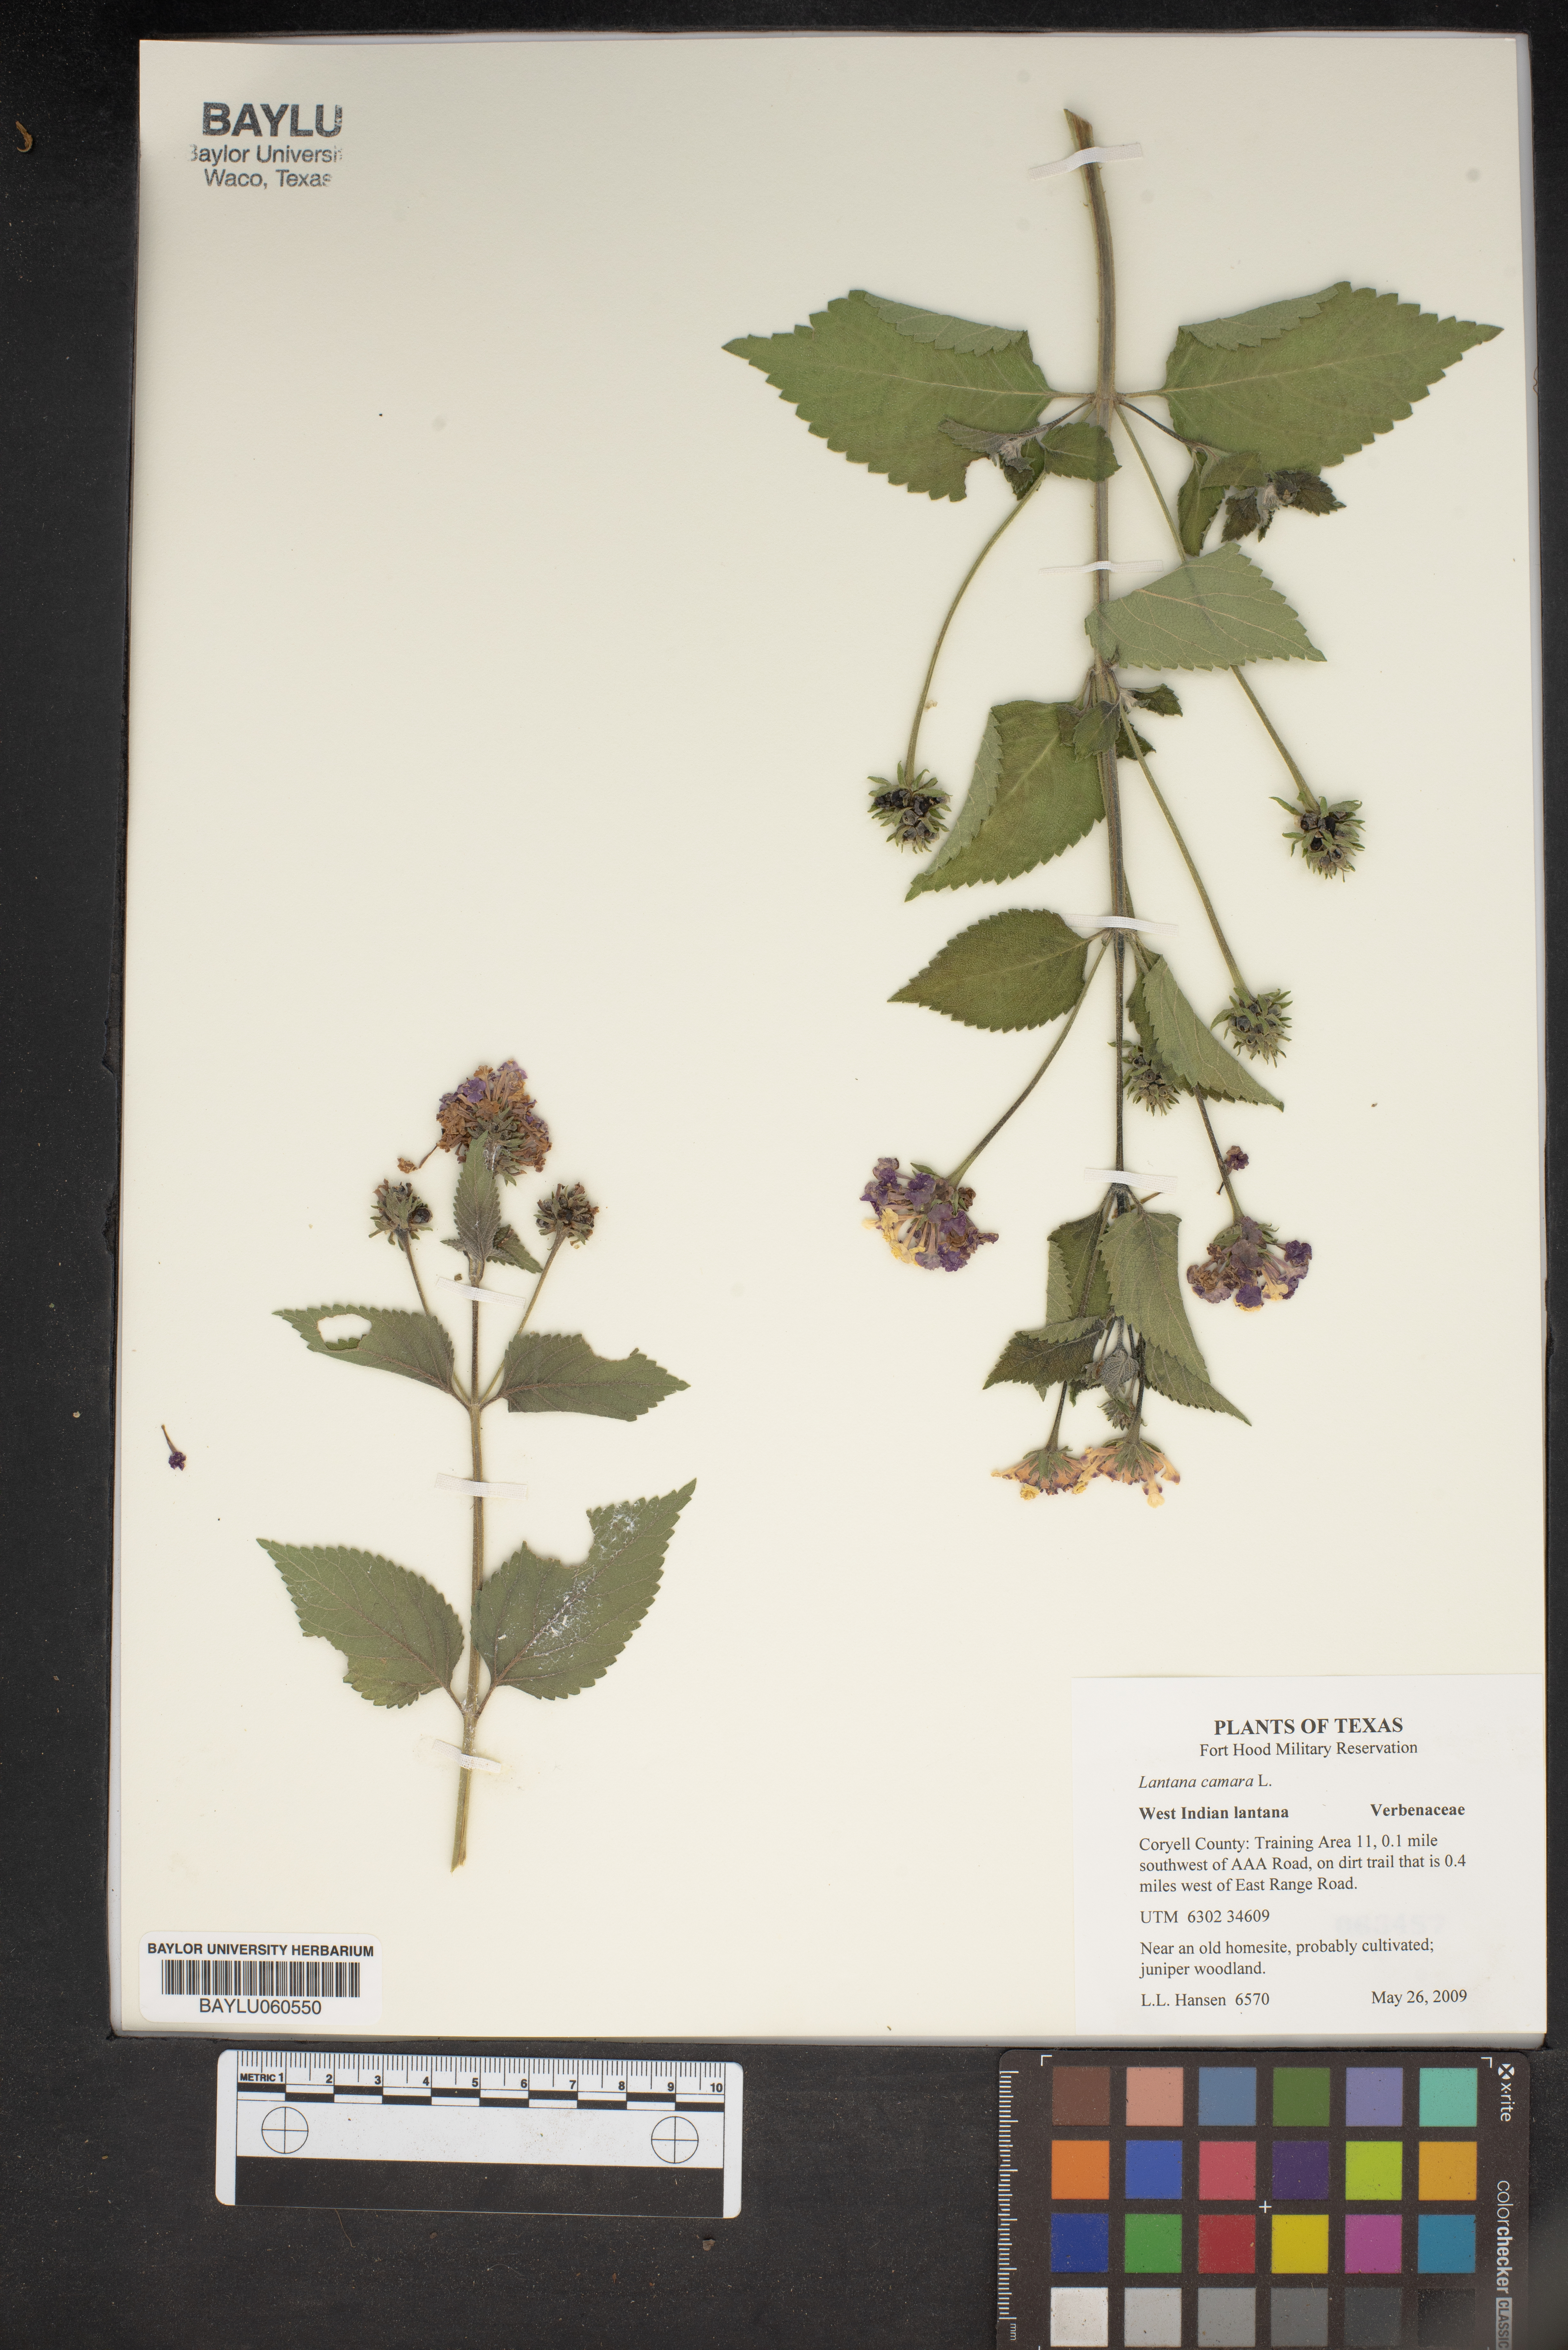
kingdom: Plantae
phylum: Tracheophyta
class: Magnoliopsida
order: Lamiales
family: Verbenaceae
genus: Lantana
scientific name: Lantana camara
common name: Lantana
